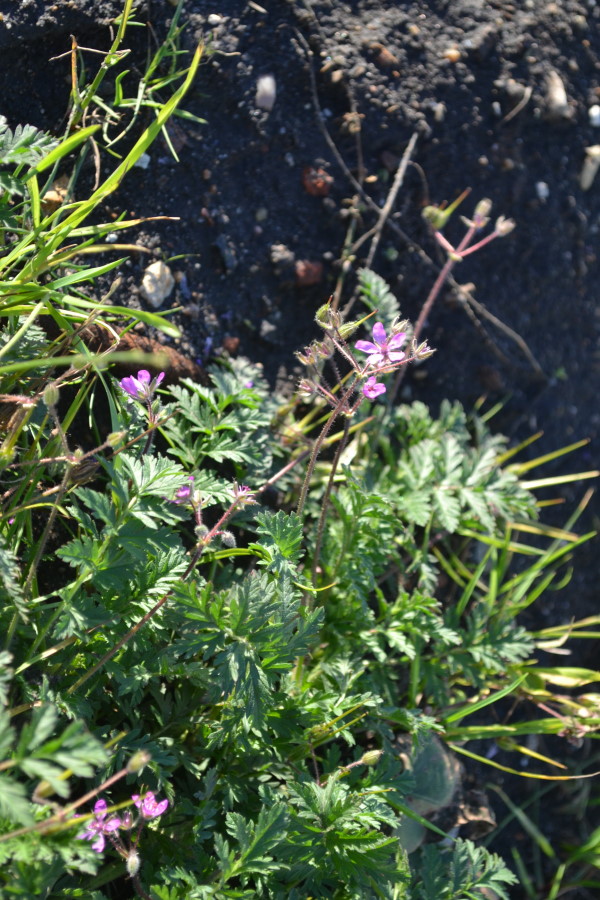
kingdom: Plantae
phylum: Tracheophyta
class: Magnoliopsida
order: Geraniales
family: Geraniaceae
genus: Erodium
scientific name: Erodium cicutarium
